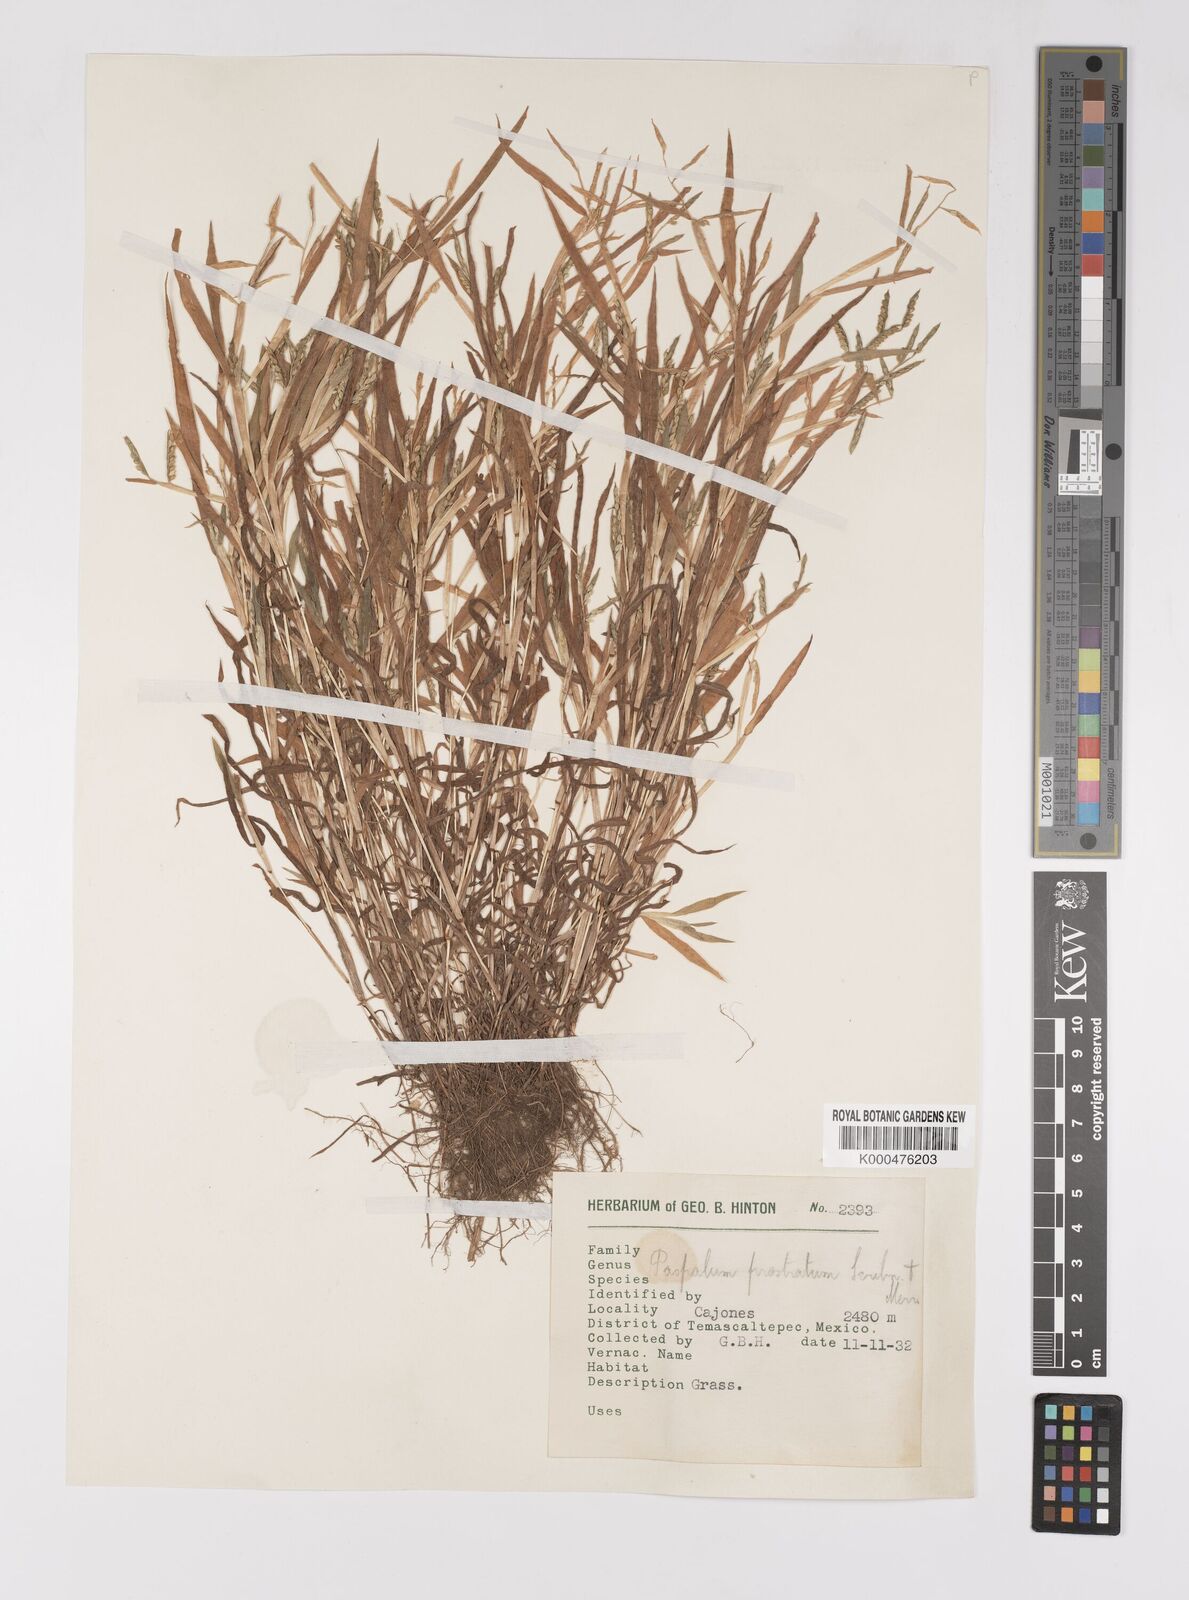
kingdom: Plantae
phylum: Tracheophyta
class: Liliopsida
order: Poales
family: Poaceae
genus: Paspalum
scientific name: Paspalum prostratum
